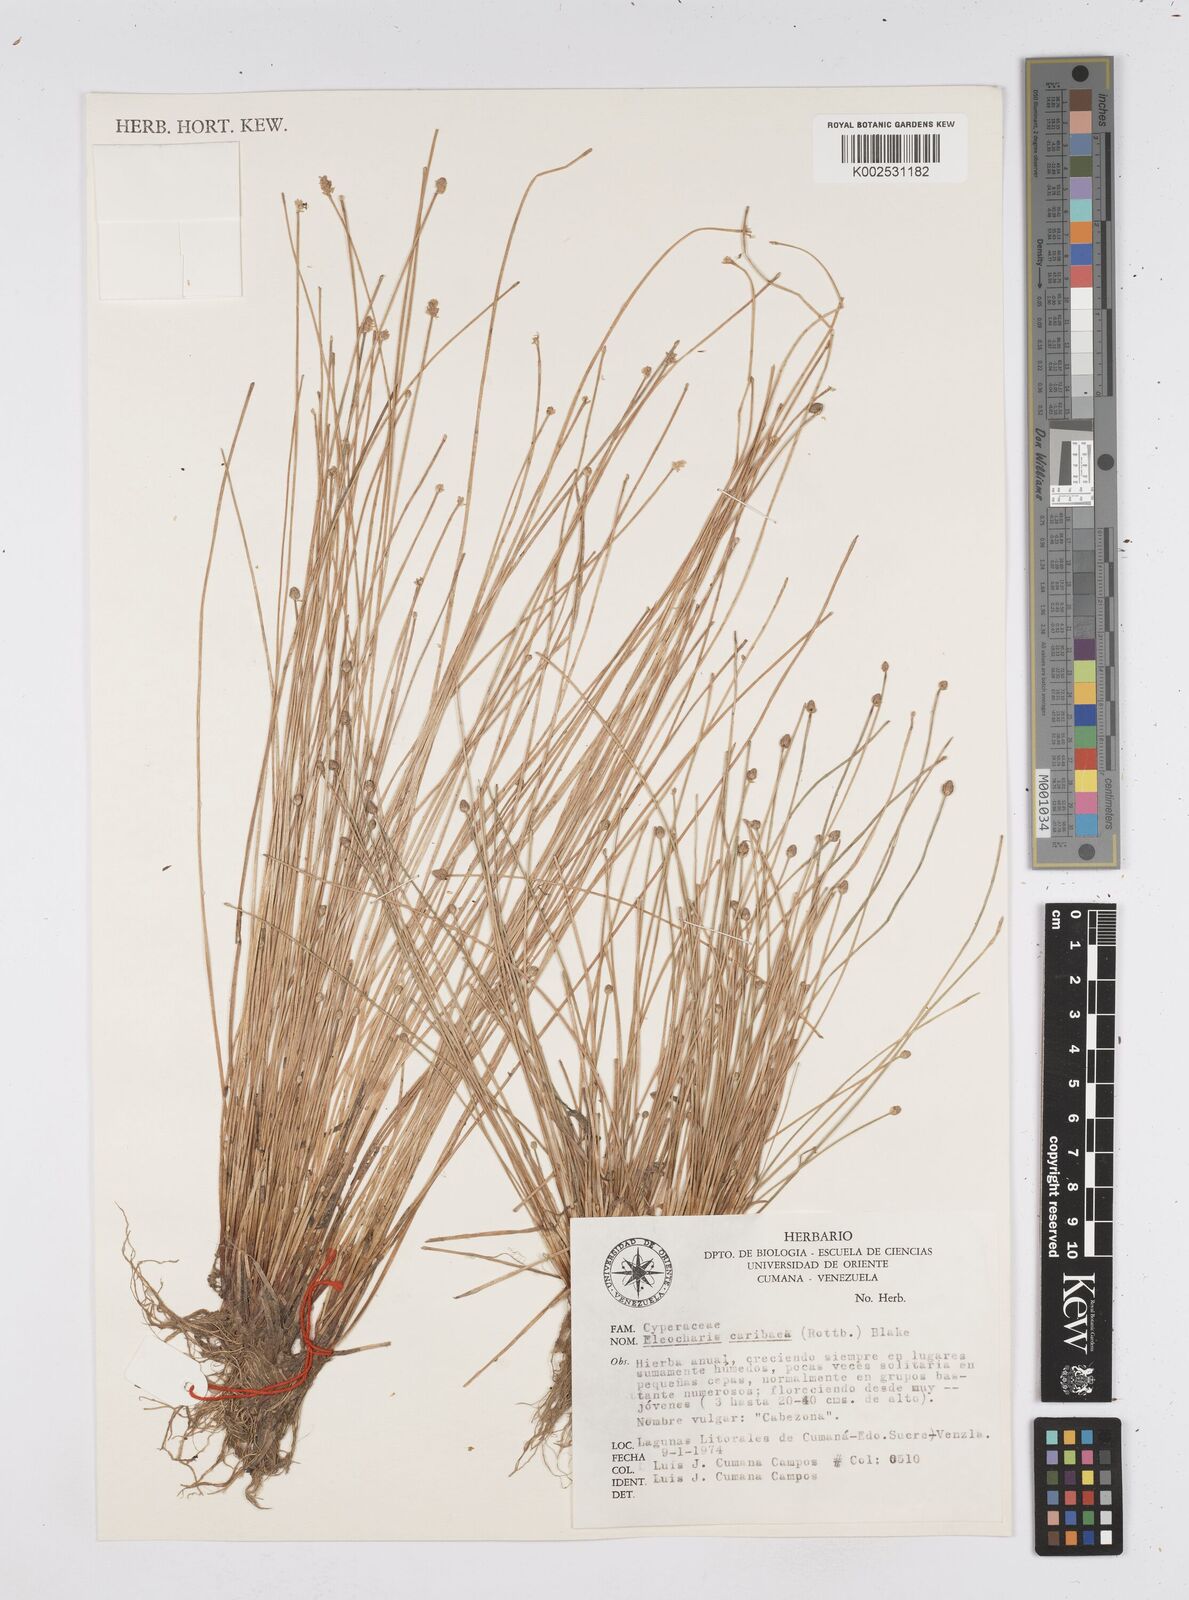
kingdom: Plantae
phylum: Tracheophyta
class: Liliopsida
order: Poales
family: Cyperaceae
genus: Eleocharis
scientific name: Eleocharis geniculata
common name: Canada spikesedge
